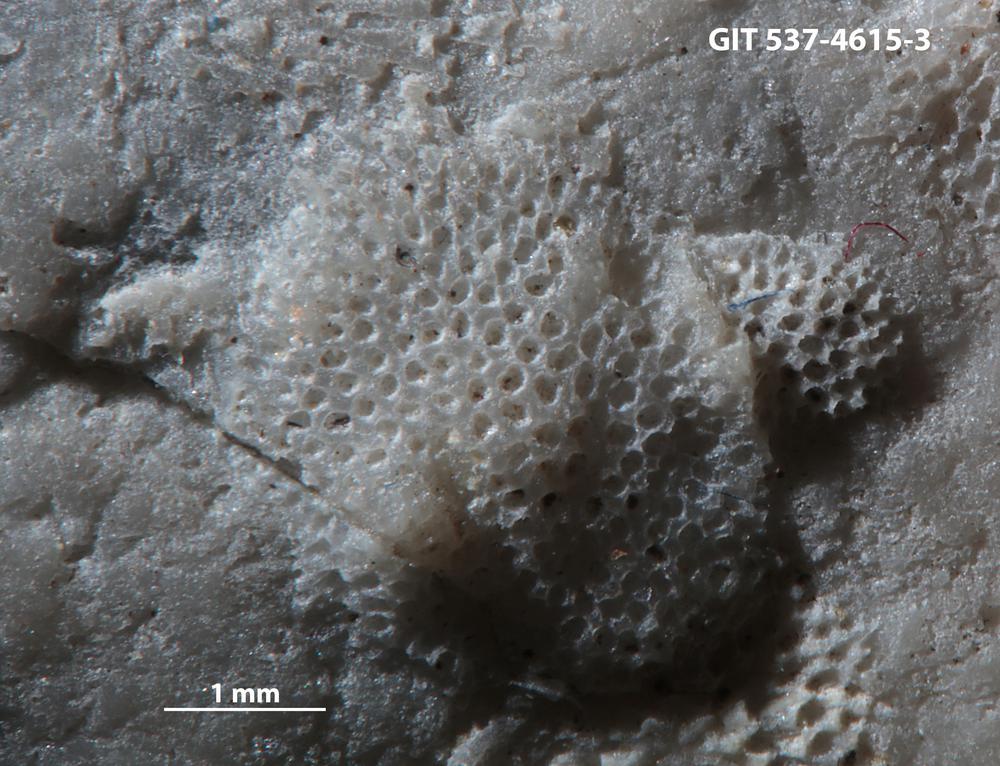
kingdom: Animalia
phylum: Bryozoa
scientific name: Bryozoa
